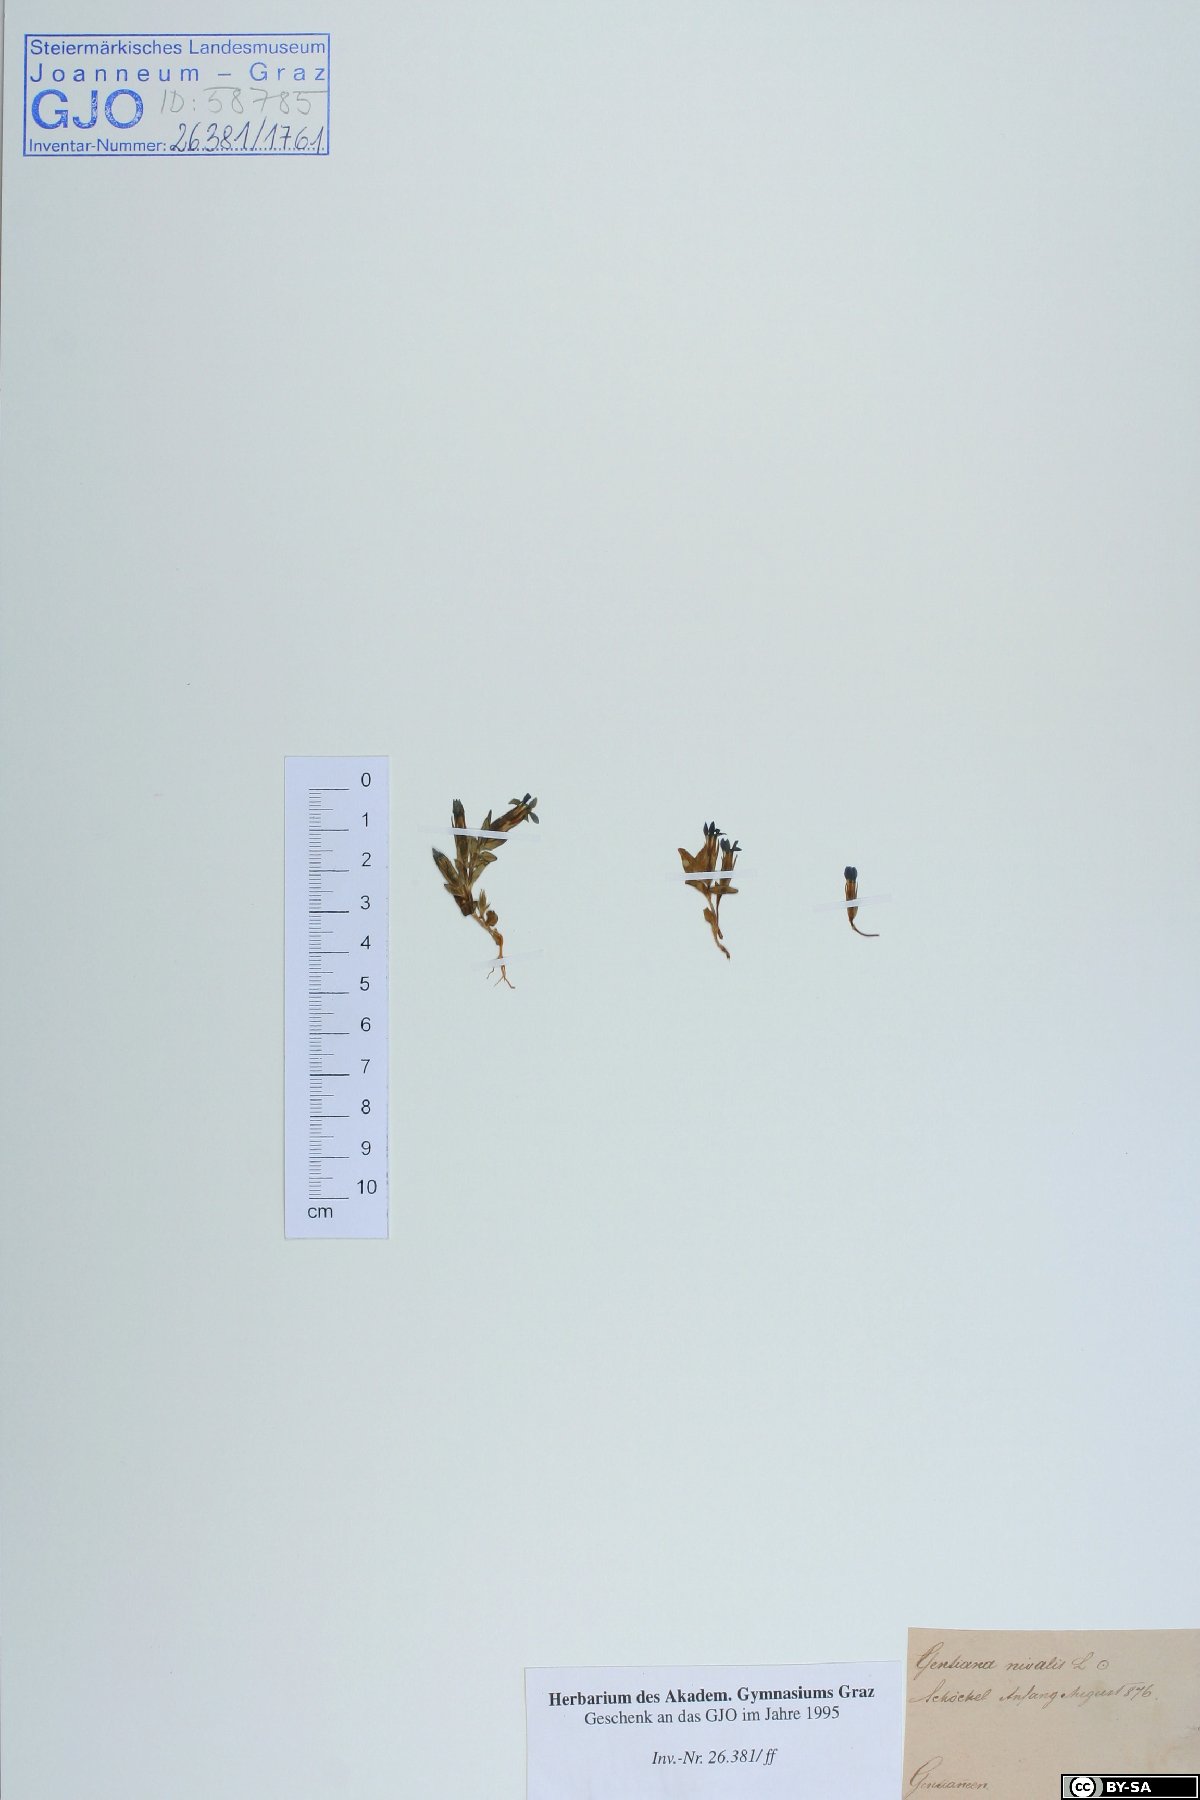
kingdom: Plantae
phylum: Tracheophyta
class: Magnoliopsida
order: Gentianales
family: Gentianaceae
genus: Gentiana
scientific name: Gentiana nivalis
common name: Alpine gentian
